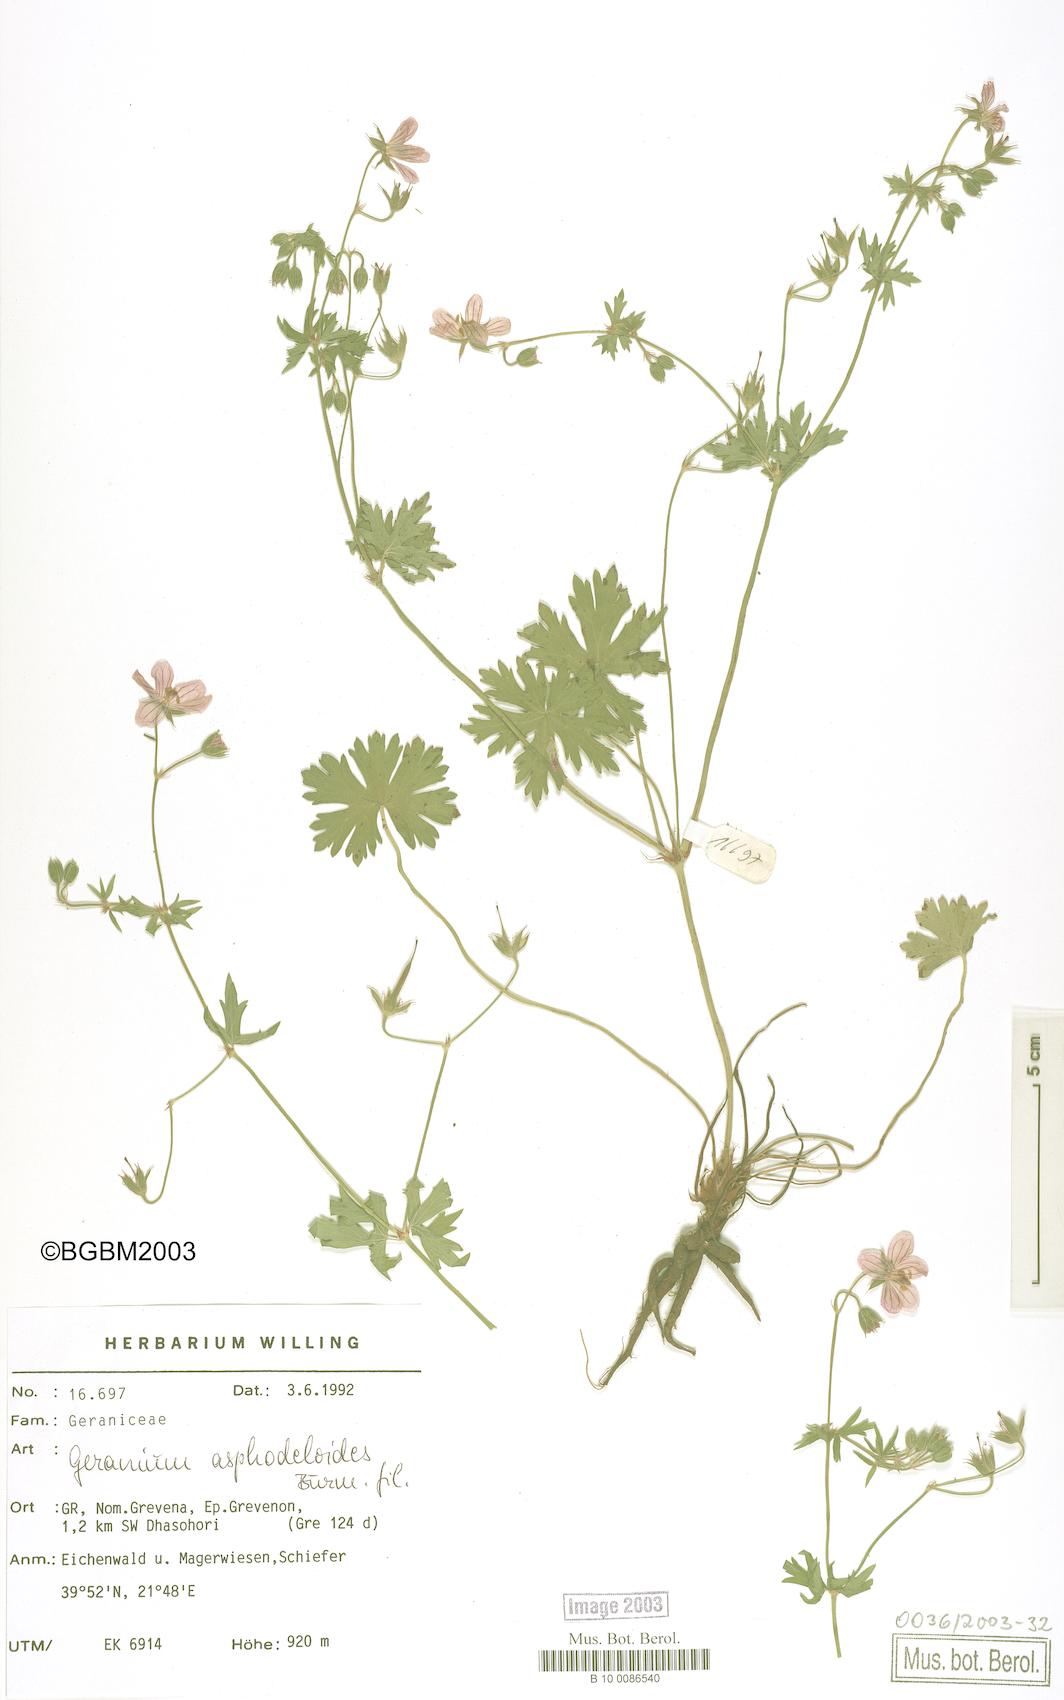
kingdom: Plantae
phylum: Tracheophyta
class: Magnoliopsida
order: Geraniales
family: Geraniaceae
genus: Geranium
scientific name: Geranium asphodeloides
